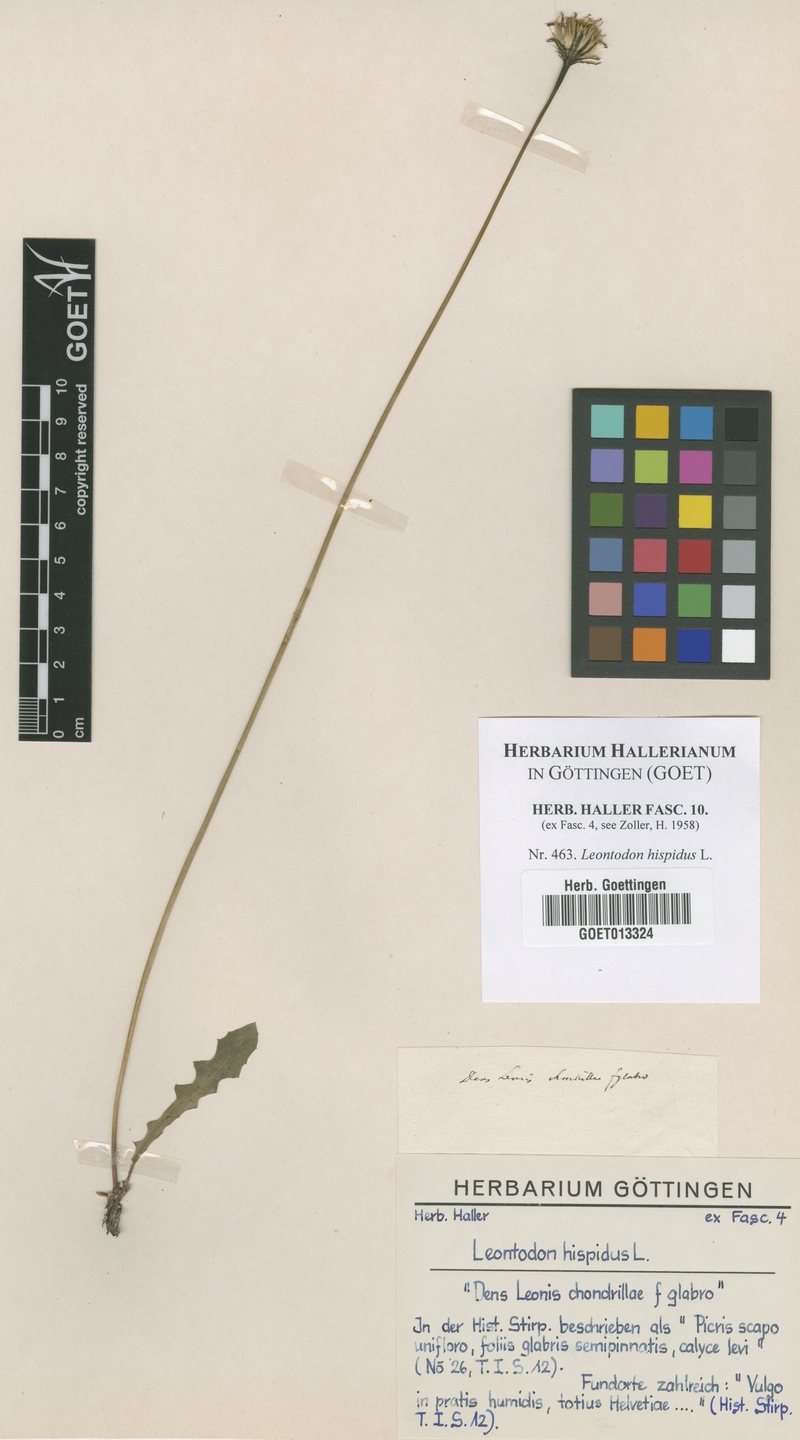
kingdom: Plantae
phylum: Tracheophyta
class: Magnoliopsida
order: Asterales
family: Asteraceae
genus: Leontodon
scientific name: Leontodon hispidus
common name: Rough hawkbit
